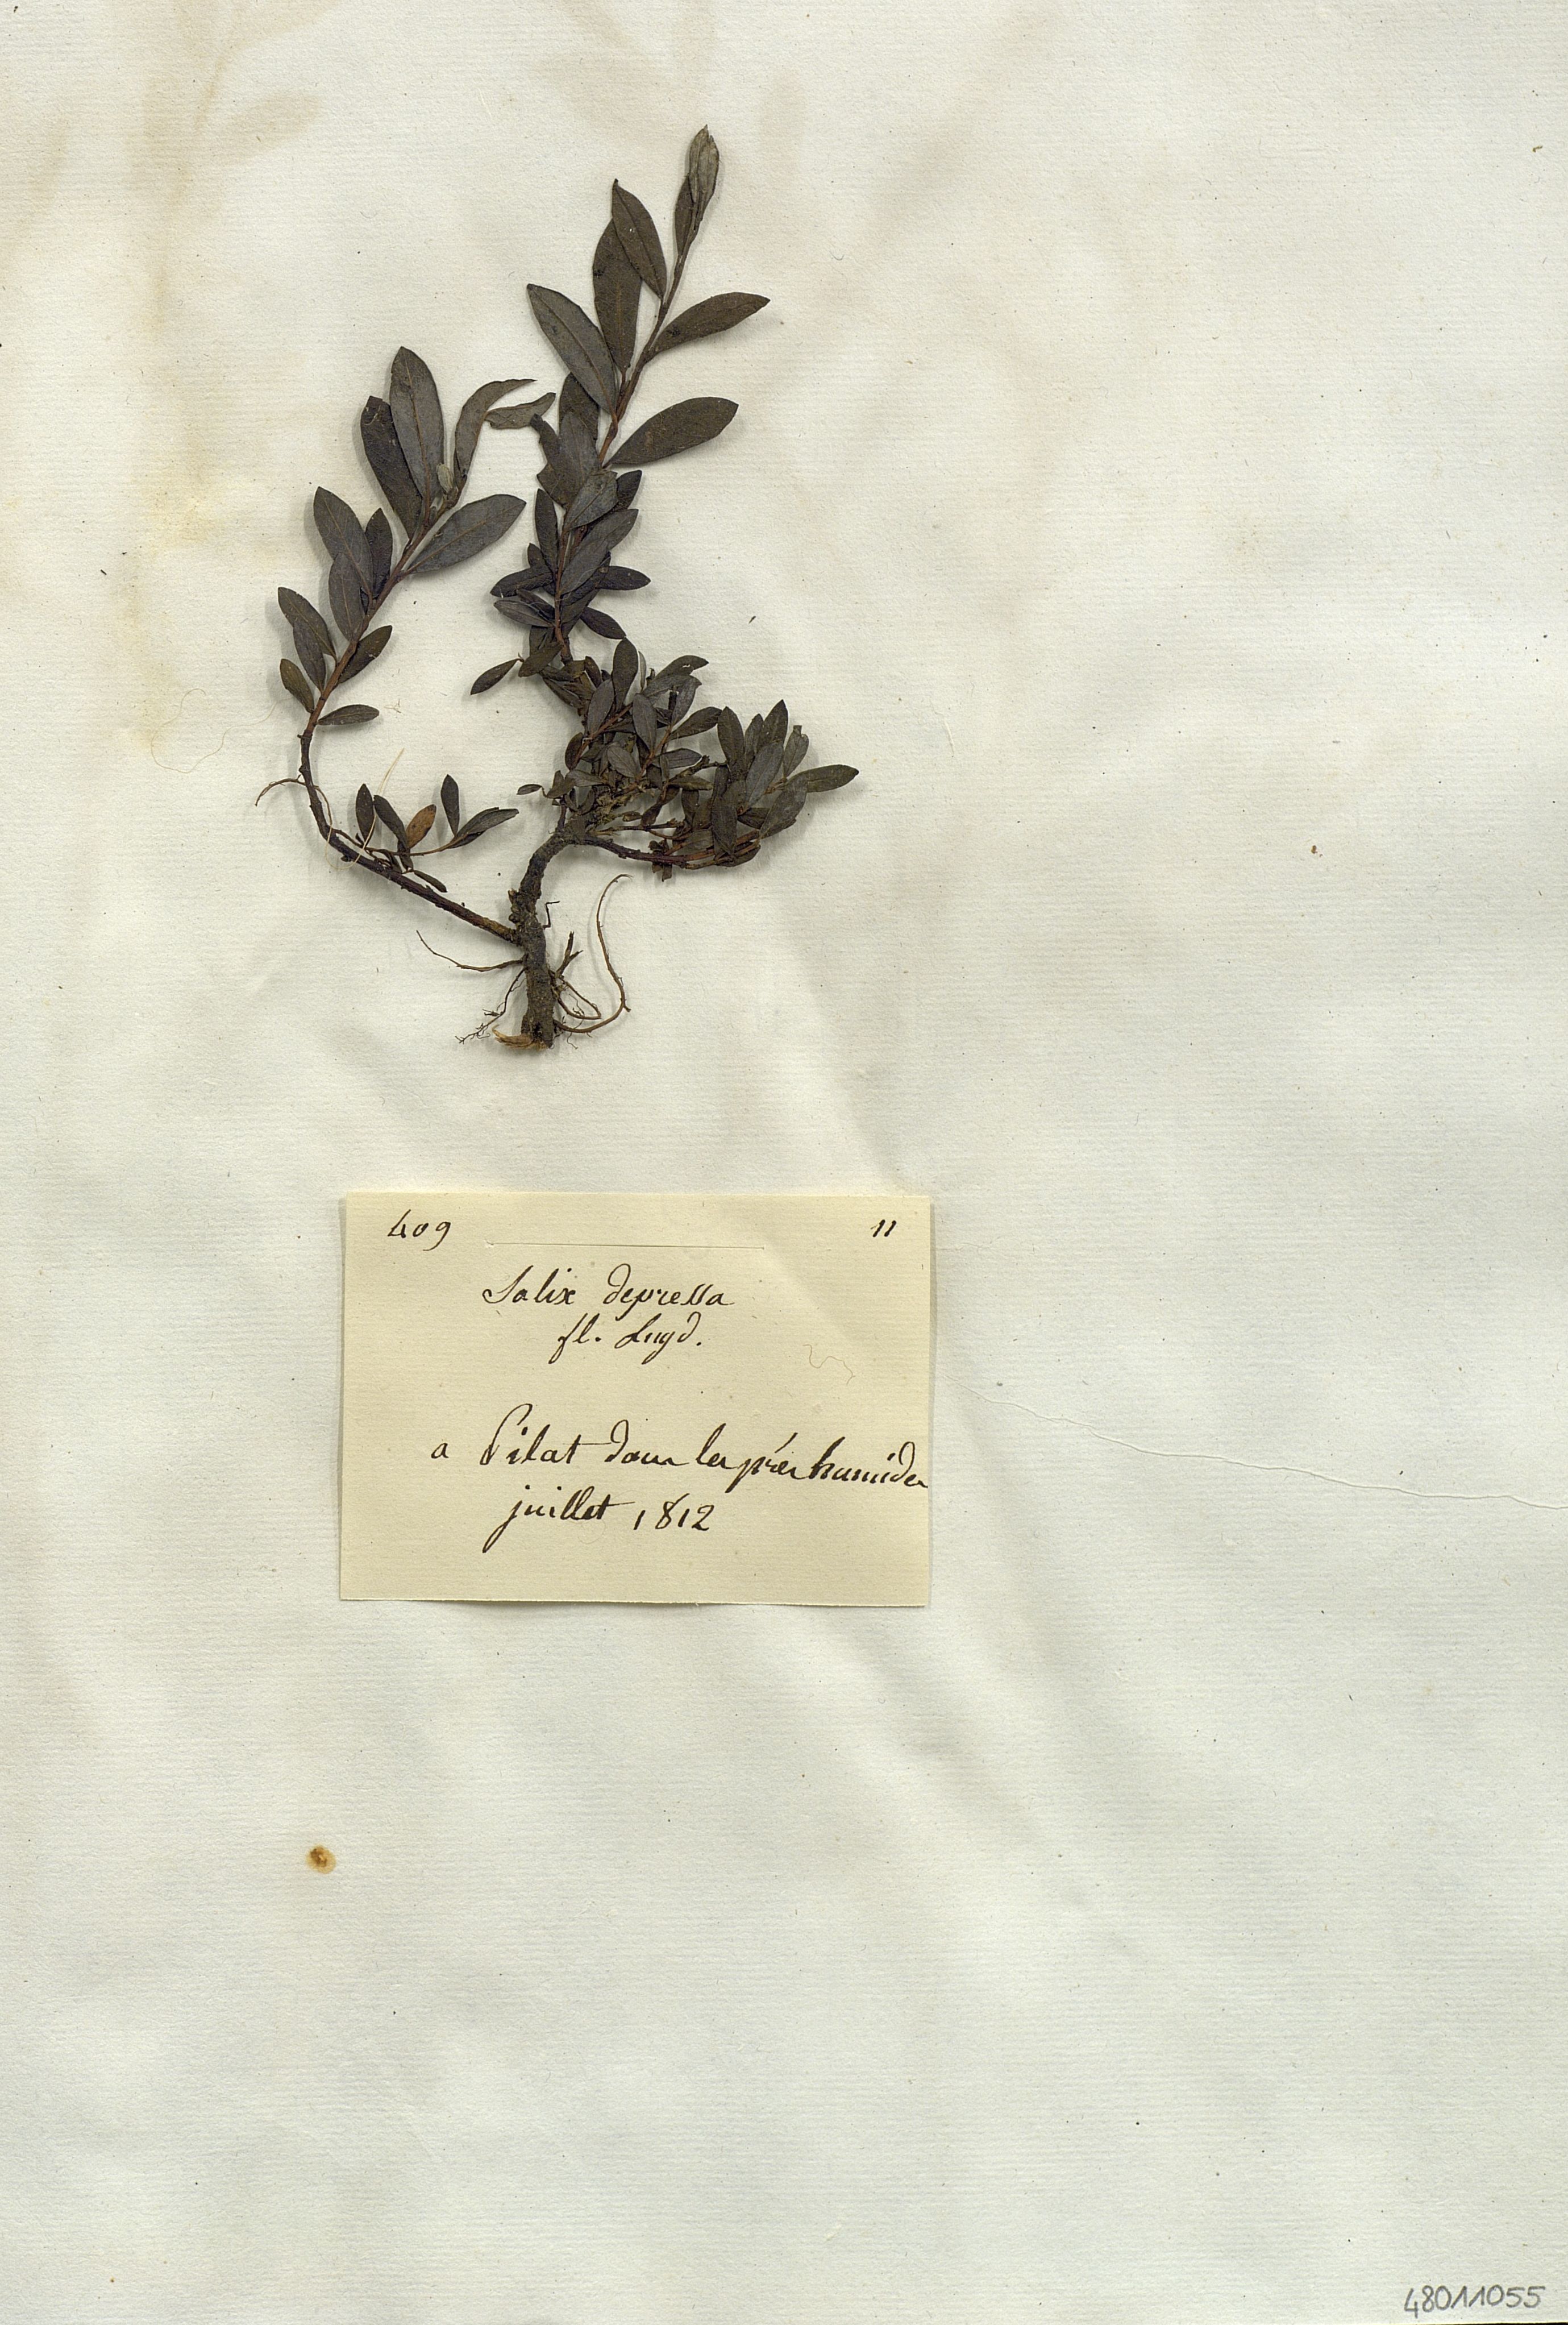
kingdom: Plantae
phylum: Tracheophyta
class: Magnoliopsida
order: Malpighiales
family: Salicaceae
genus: Salix
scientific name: Salix
